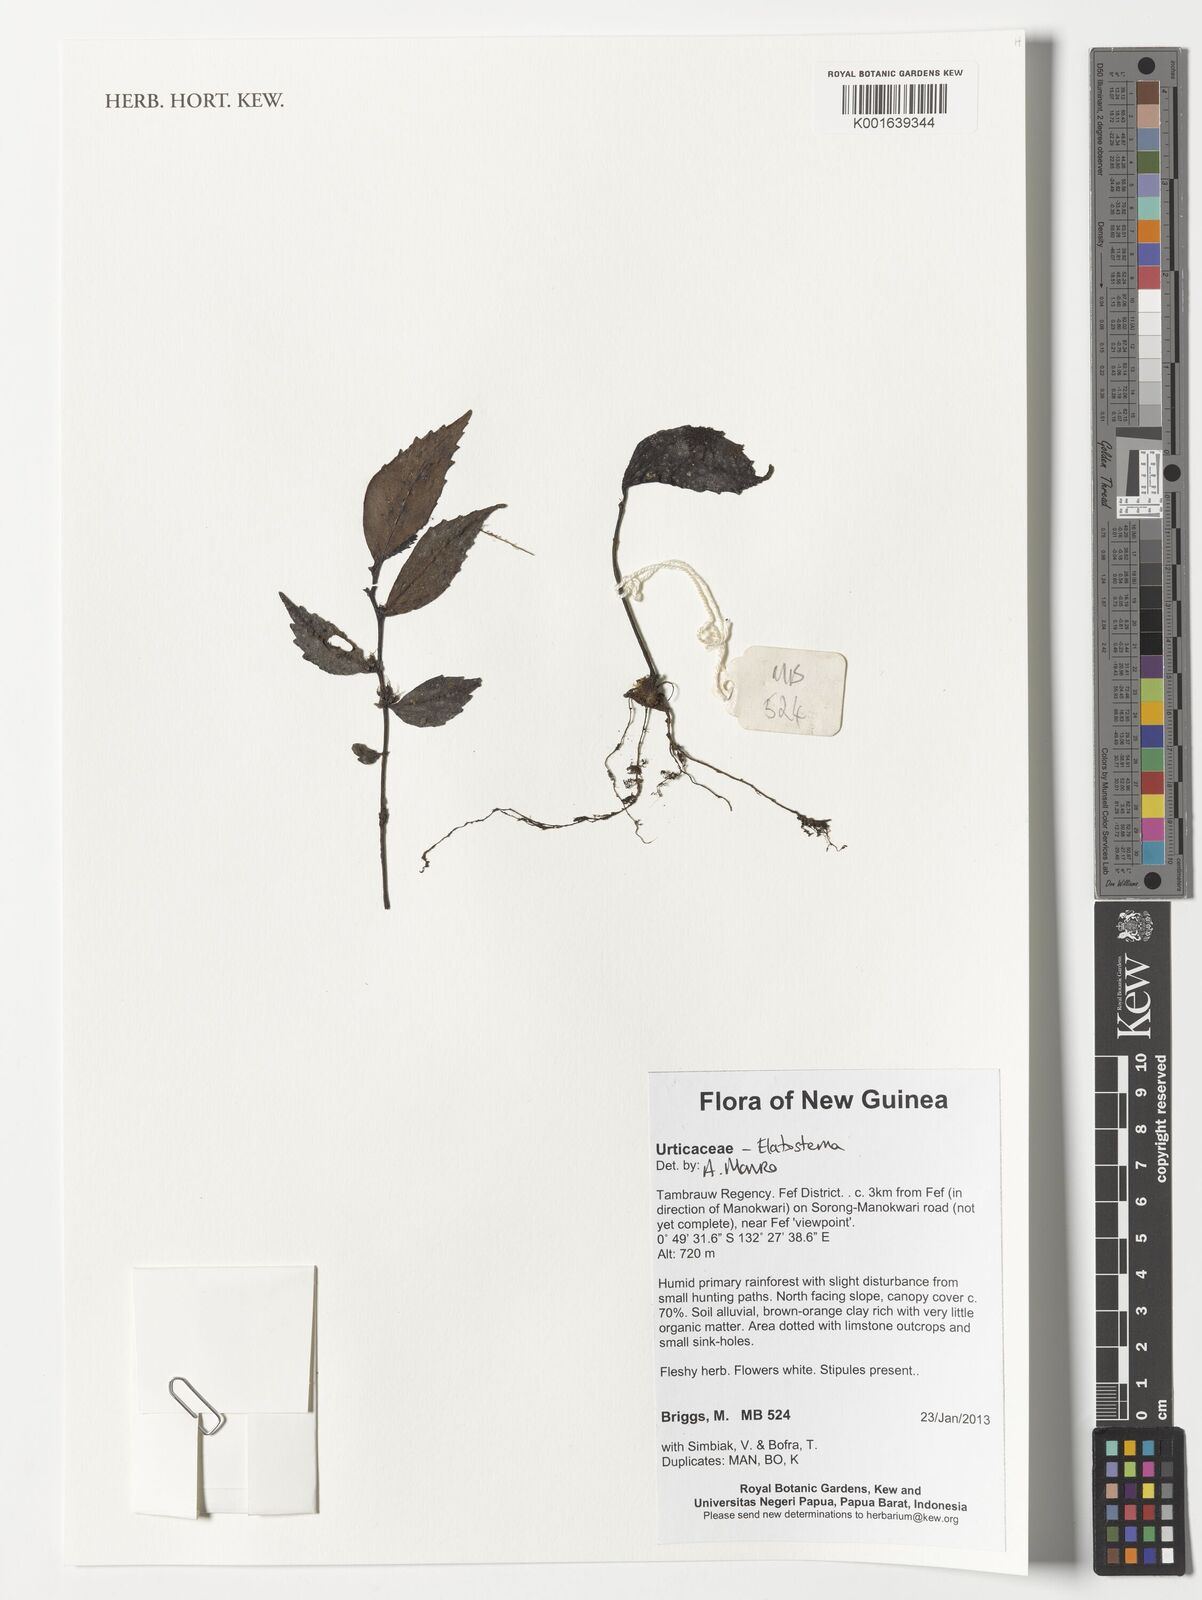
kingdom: Plantae
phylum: Tracheophyta
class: Magnoliopsida
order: Rosales
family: Urticaceae
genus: Elatostema
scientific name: Elatostema
